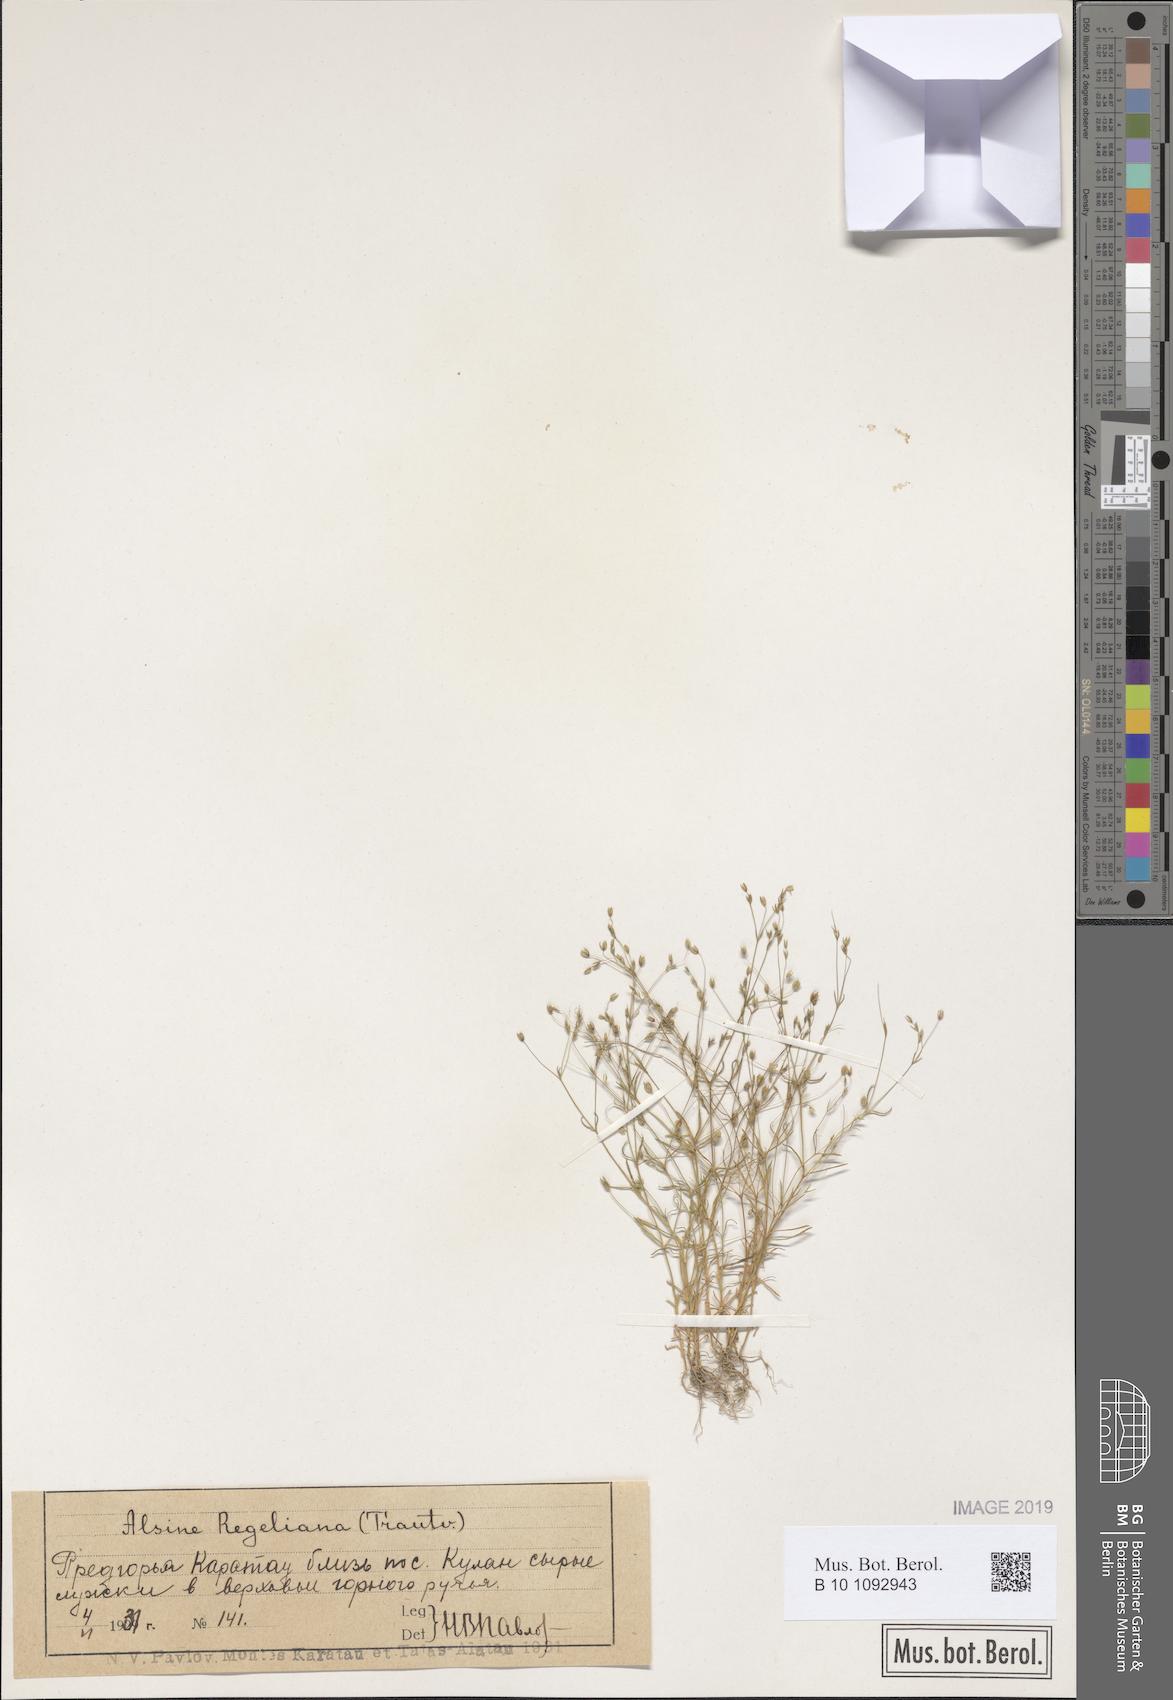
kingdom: Plantae
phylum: Tracheophyta
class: Magnoliopsida
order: Caryophyllales
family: Caryophyllaceae
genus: Sabulina
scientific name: Sabulina regeliana
